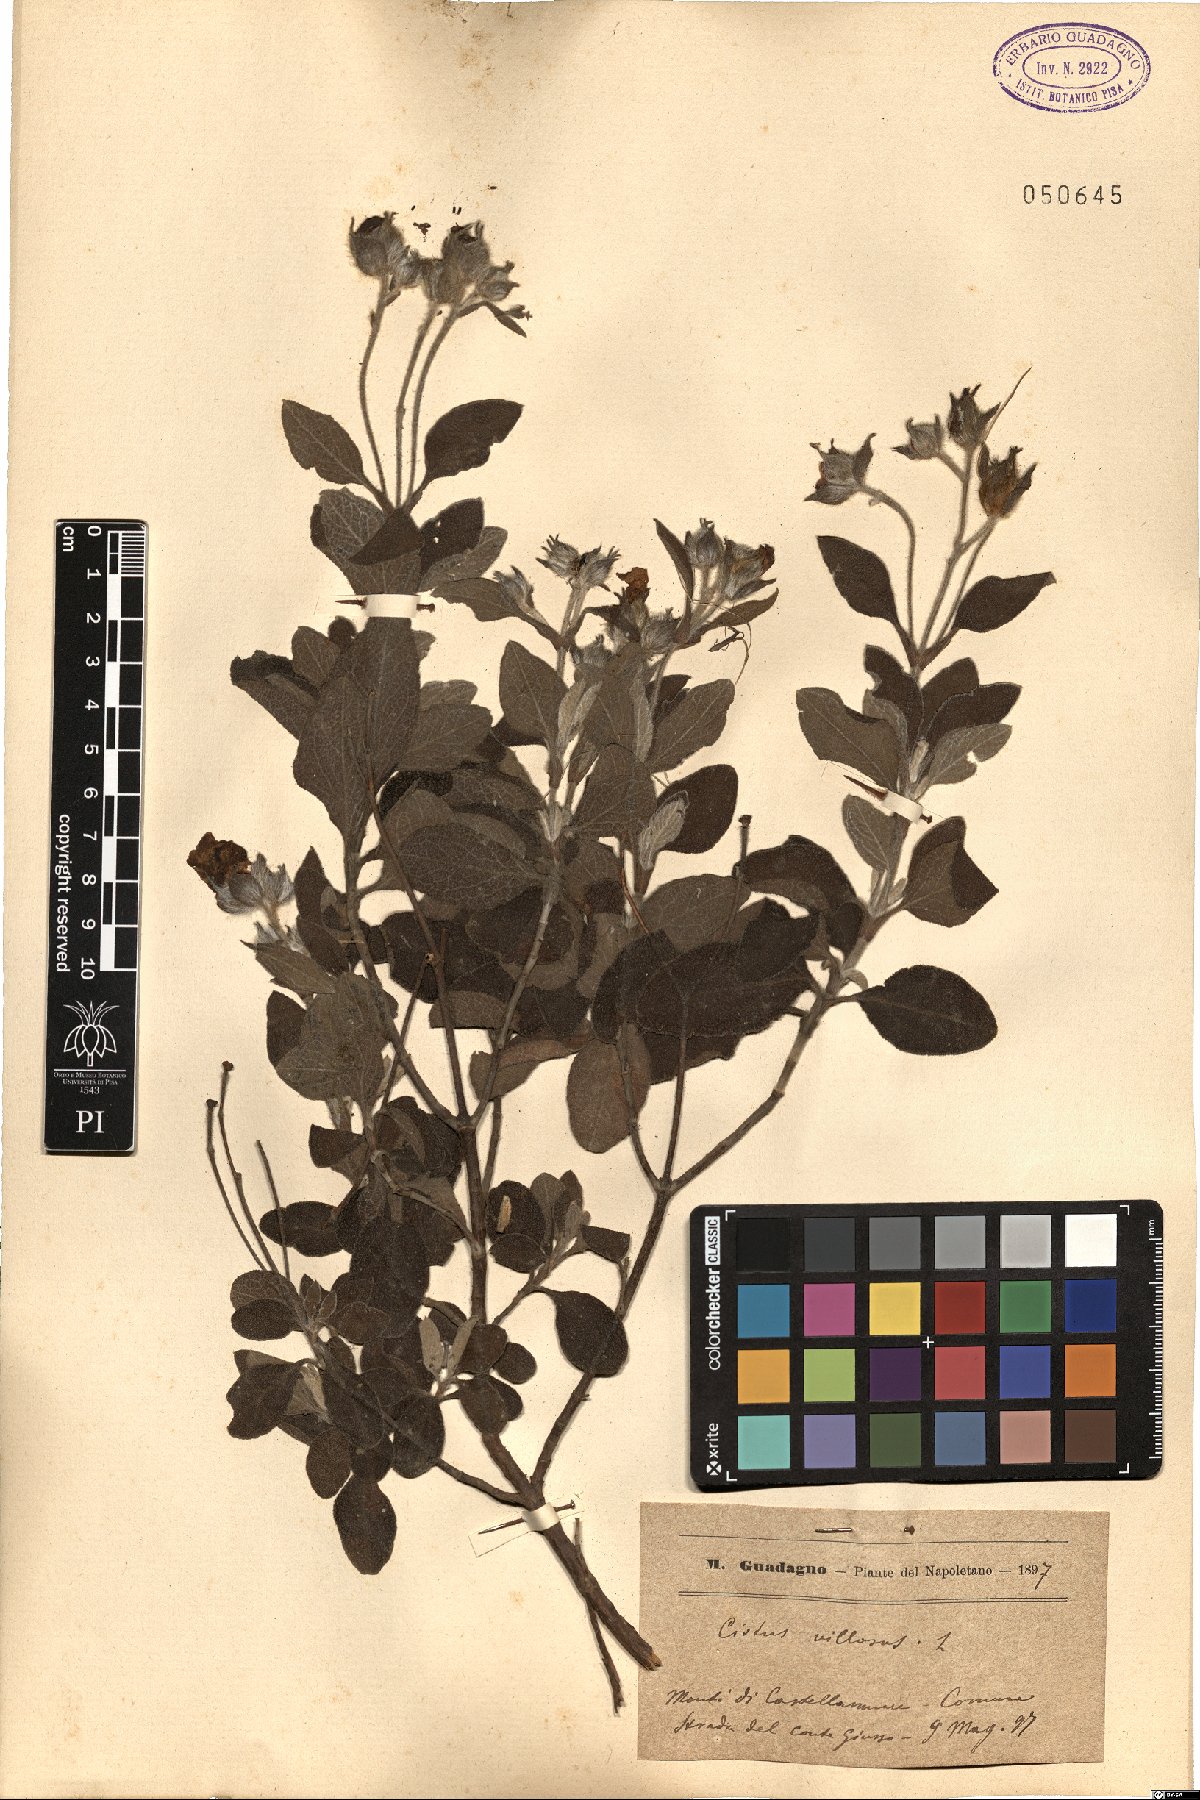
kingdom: Plantae
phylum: Tracheophyta
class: Magnoliopsida
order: Malvales
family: Cistaceae
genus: Cistus
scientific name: Cistus creticus
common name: Cretan rockrose
